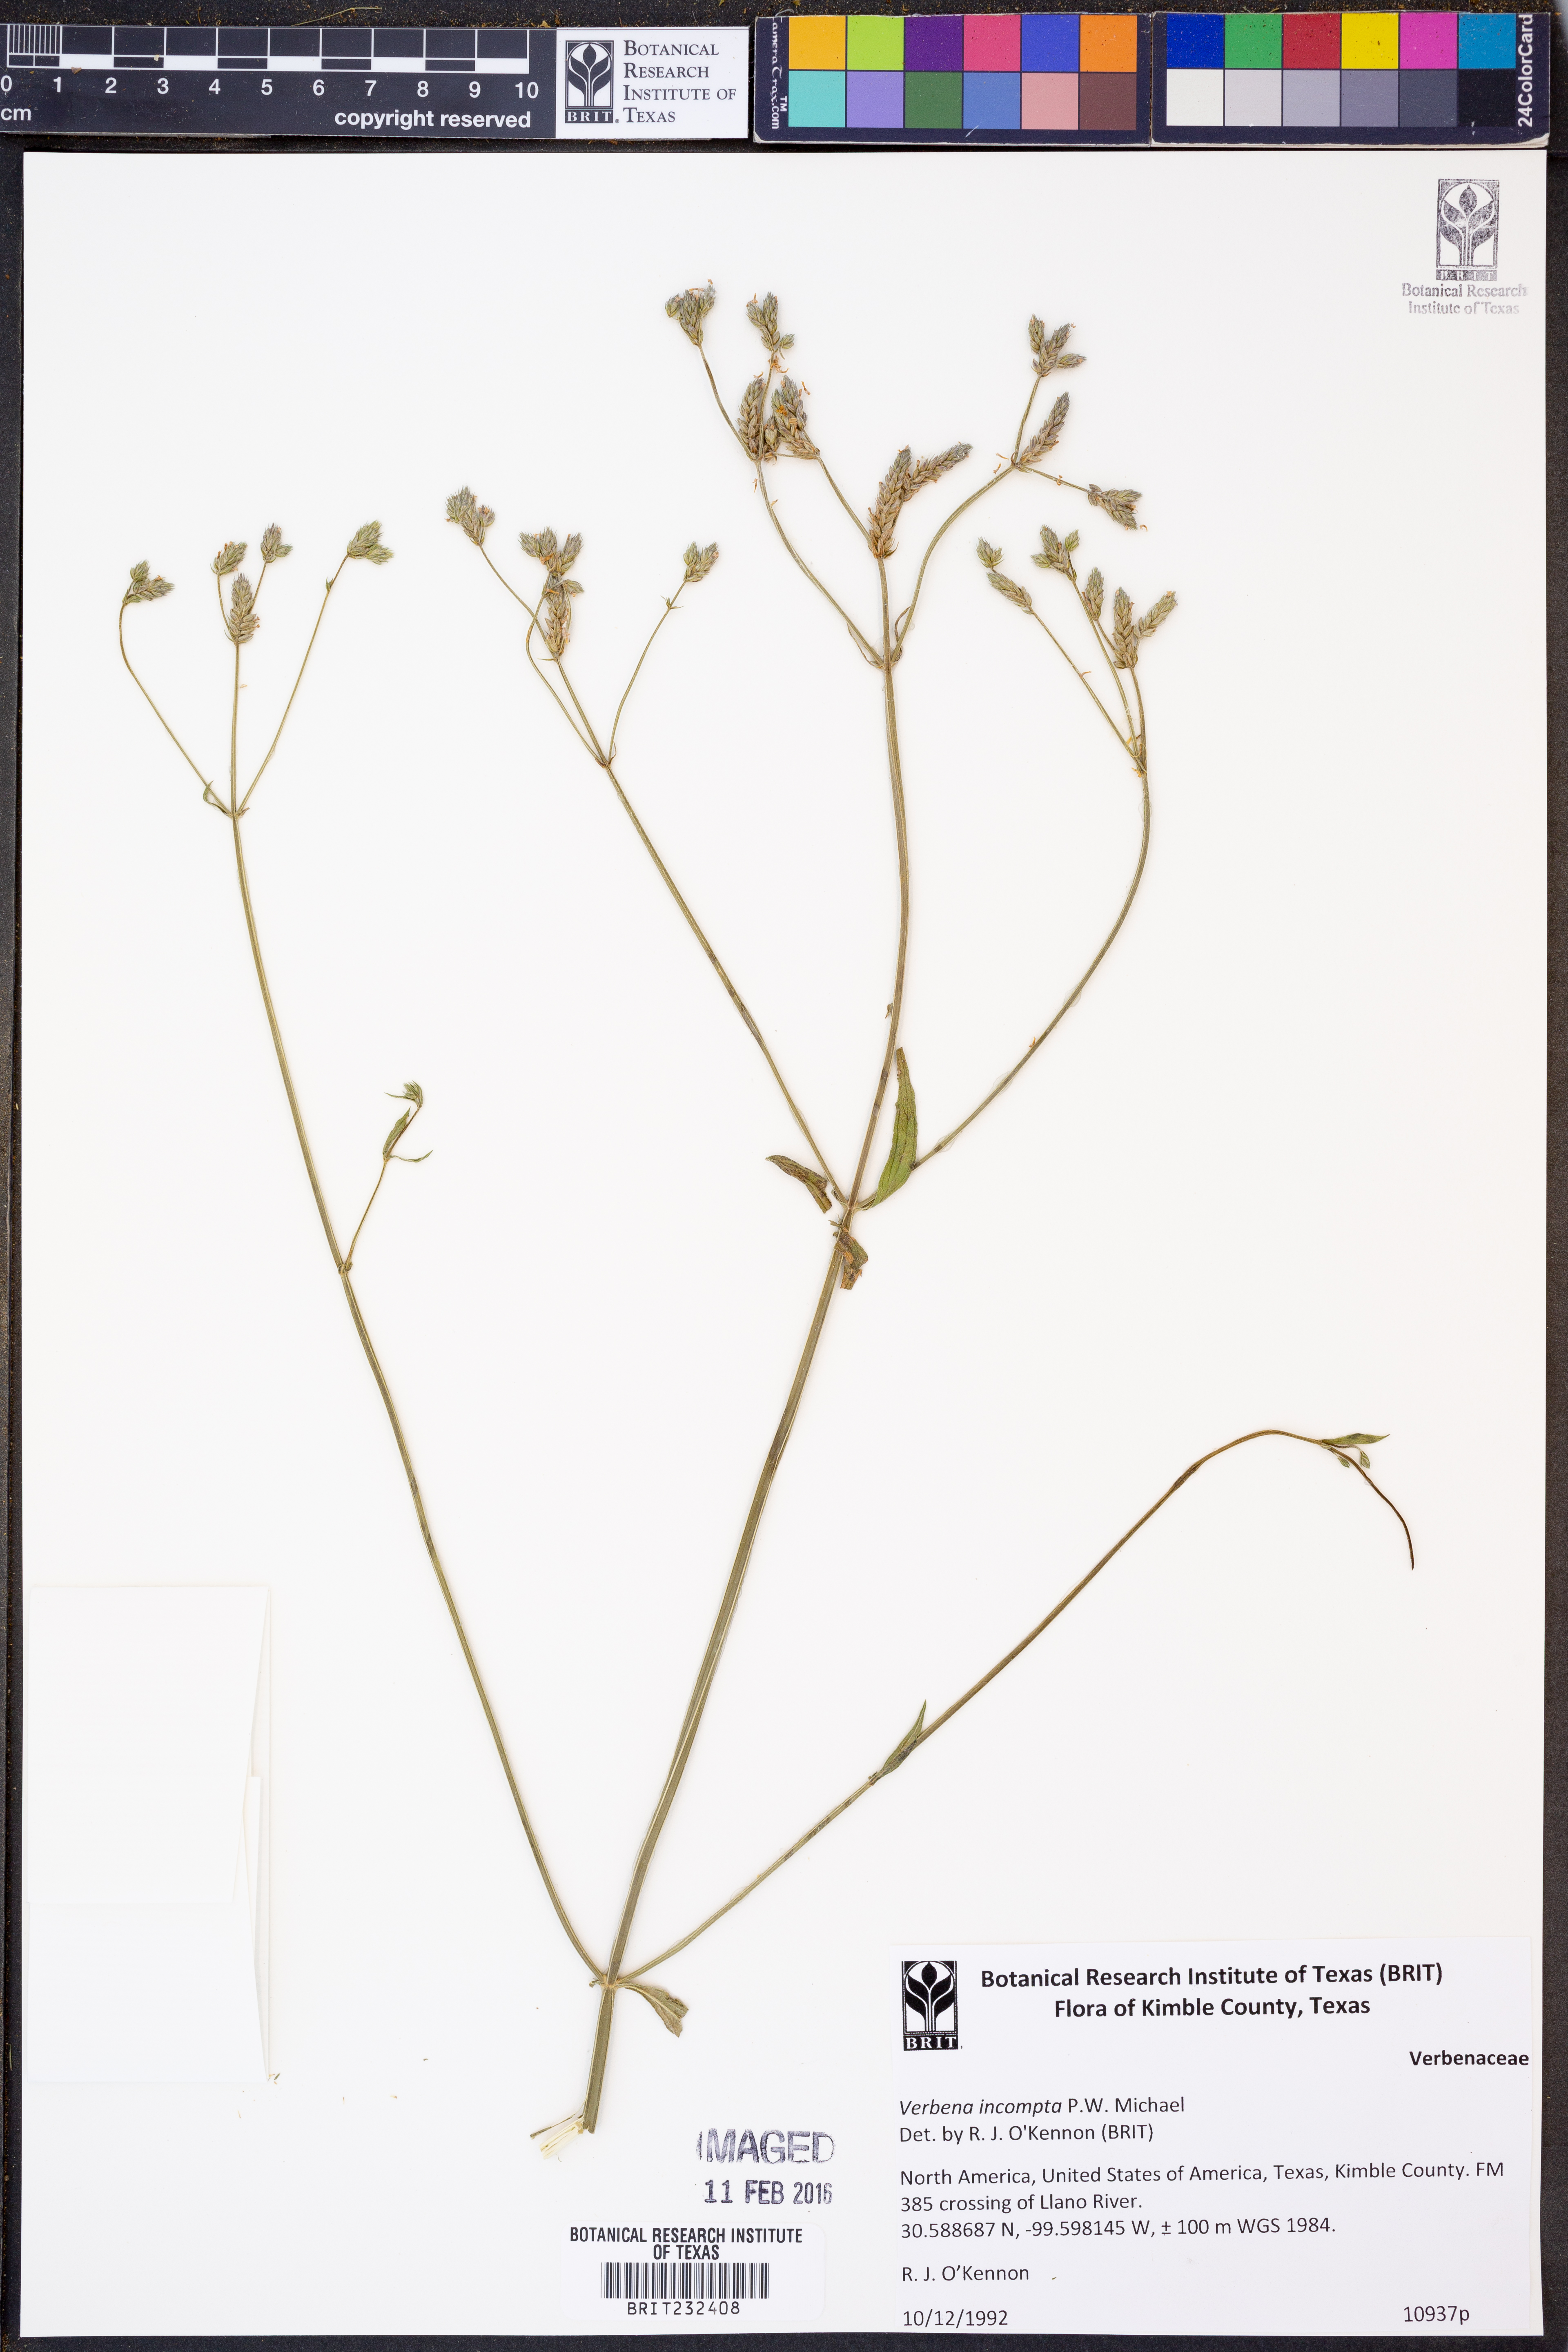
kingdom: Plantae
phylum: Tracheophyta
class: Magnoliopsida
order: Lamiales
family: Verbenaceae
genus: Verbena
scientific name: Verbena incompta
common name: Purpletop vervain
